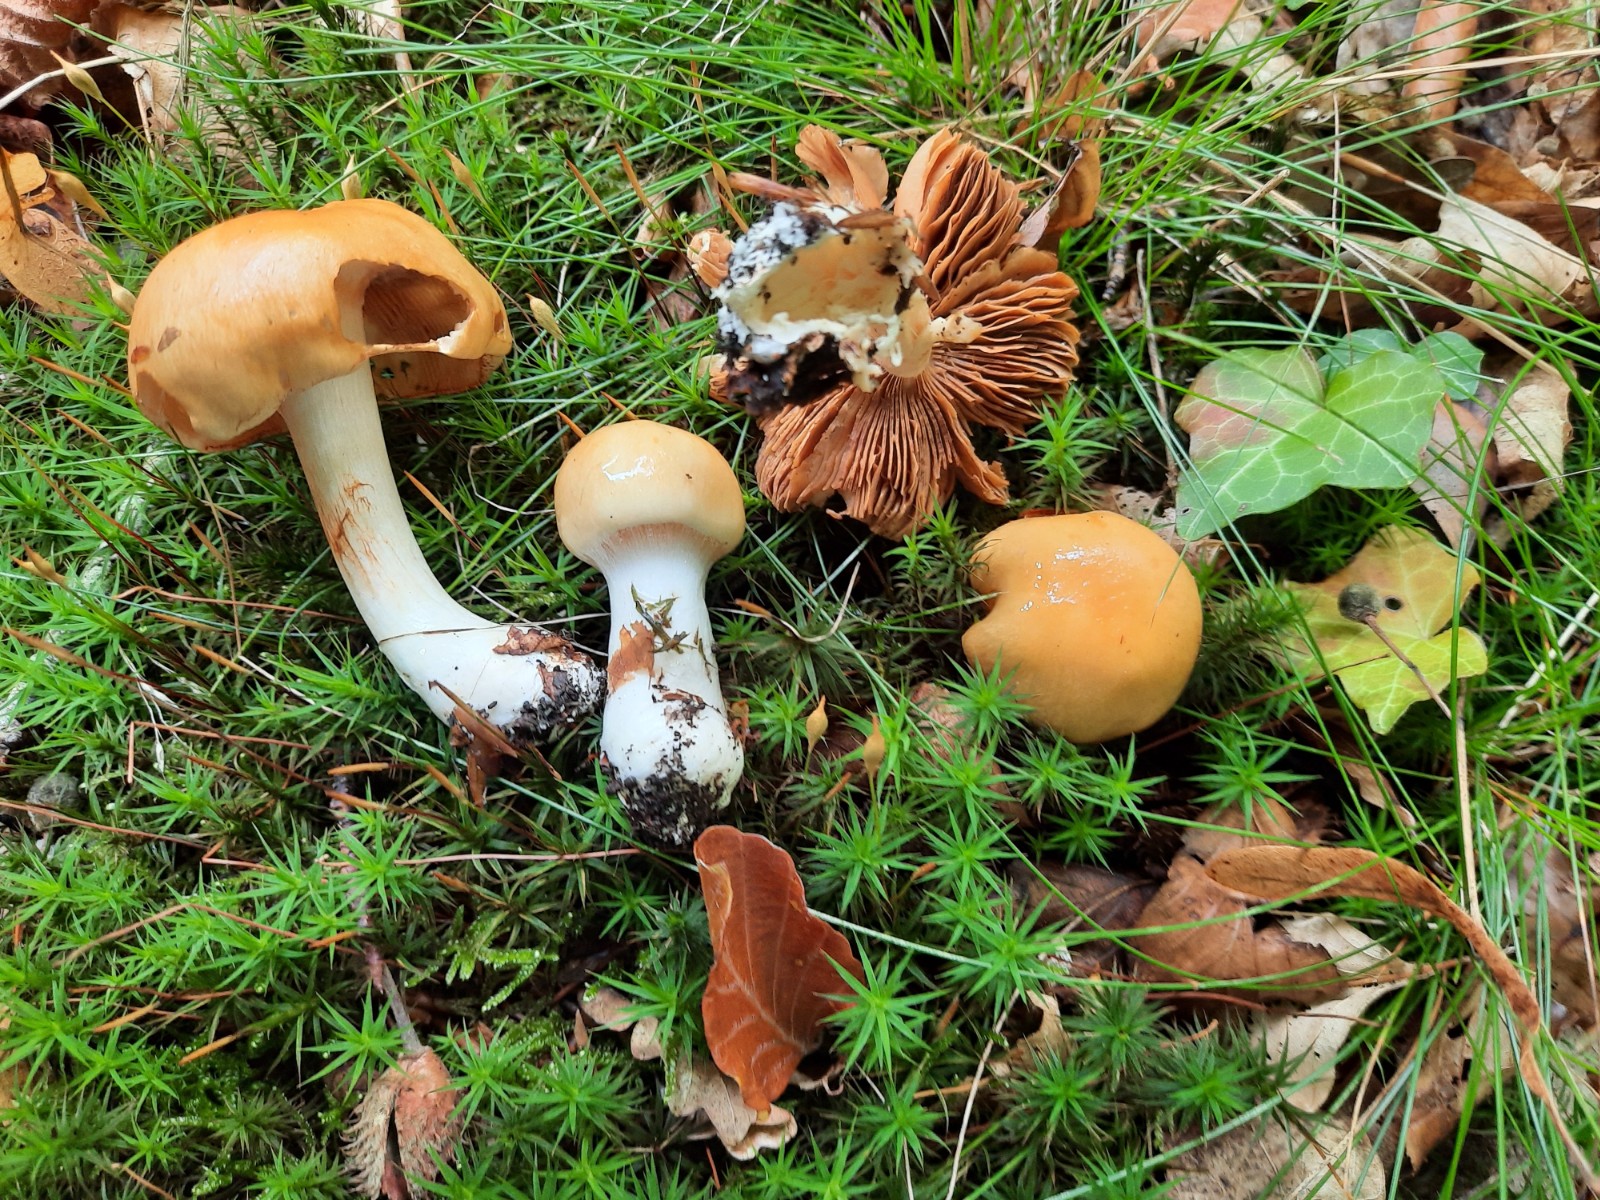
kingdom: Fungi
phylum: Basidiomycota
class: Agaricomycetes
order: Agaricales
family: Cortinariaceae
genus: Thaxterogaster
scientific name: Thaxterogaster emollitus
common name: besk slørhat
